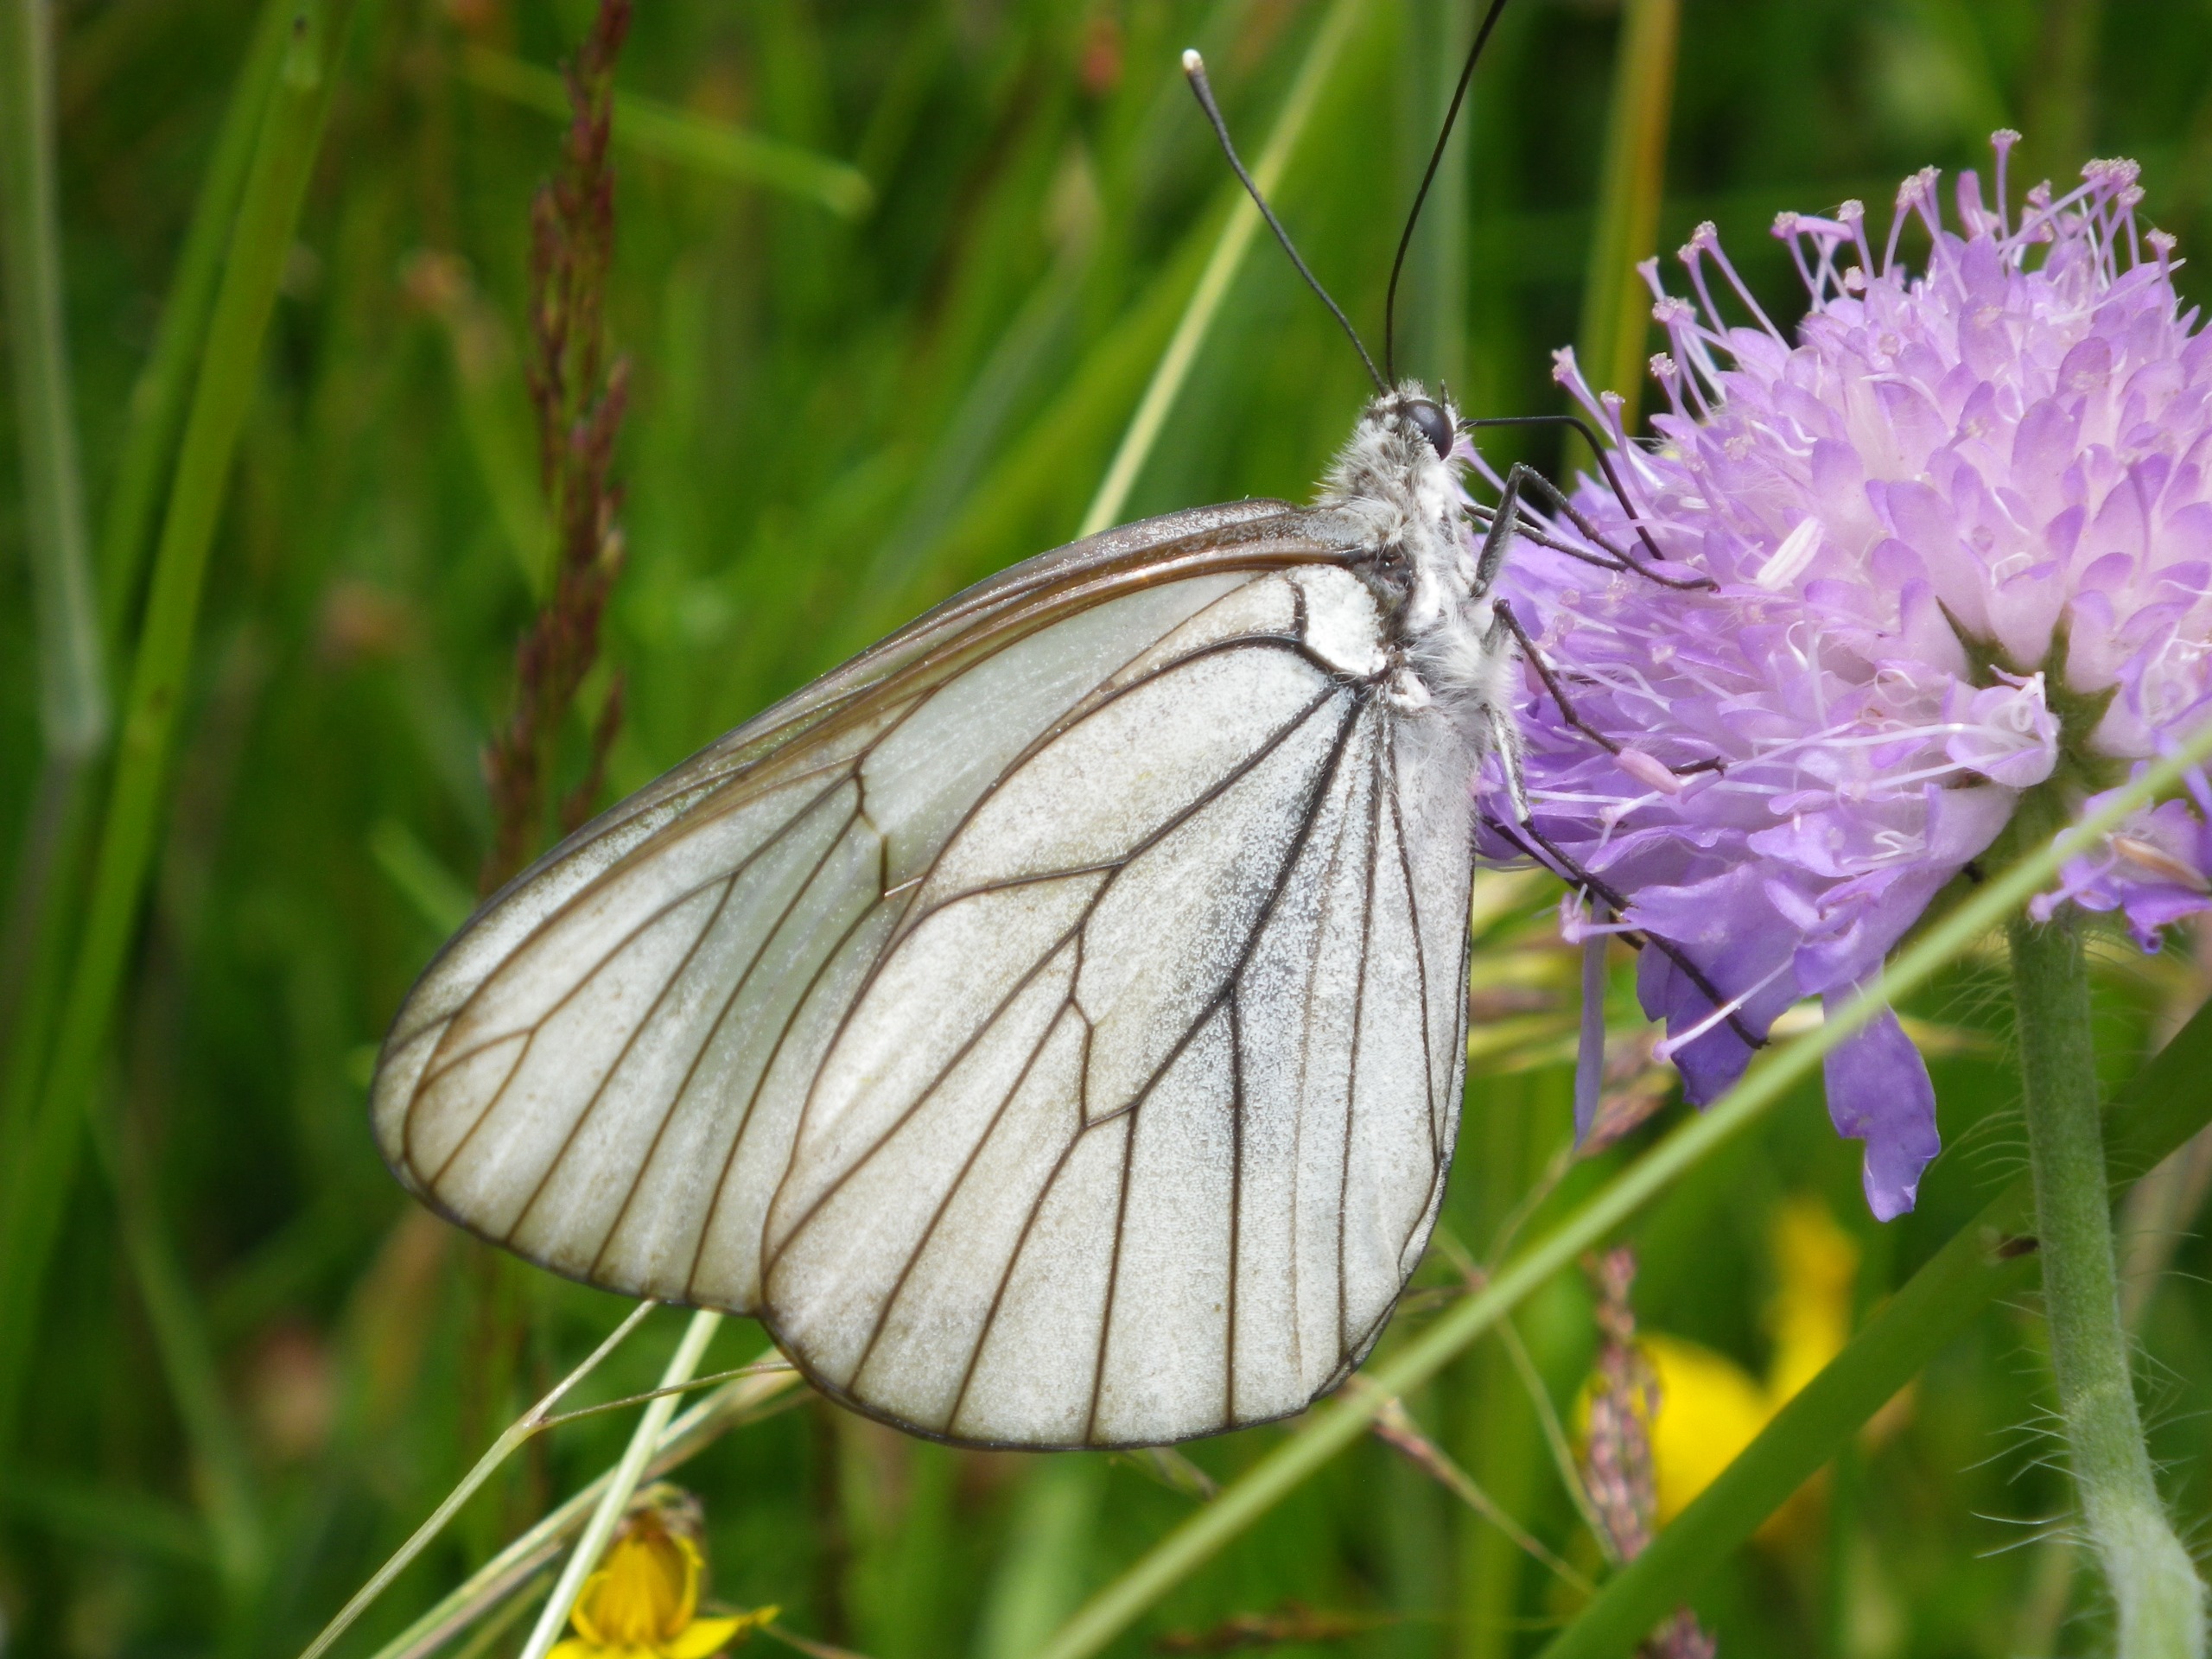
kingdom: Animalia
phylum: Arthropoda
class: Insecta
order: Lepidoptera
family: Pieridae
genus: Aporia
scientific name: Aporia crataegi
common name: Sortåret hvidvinge
